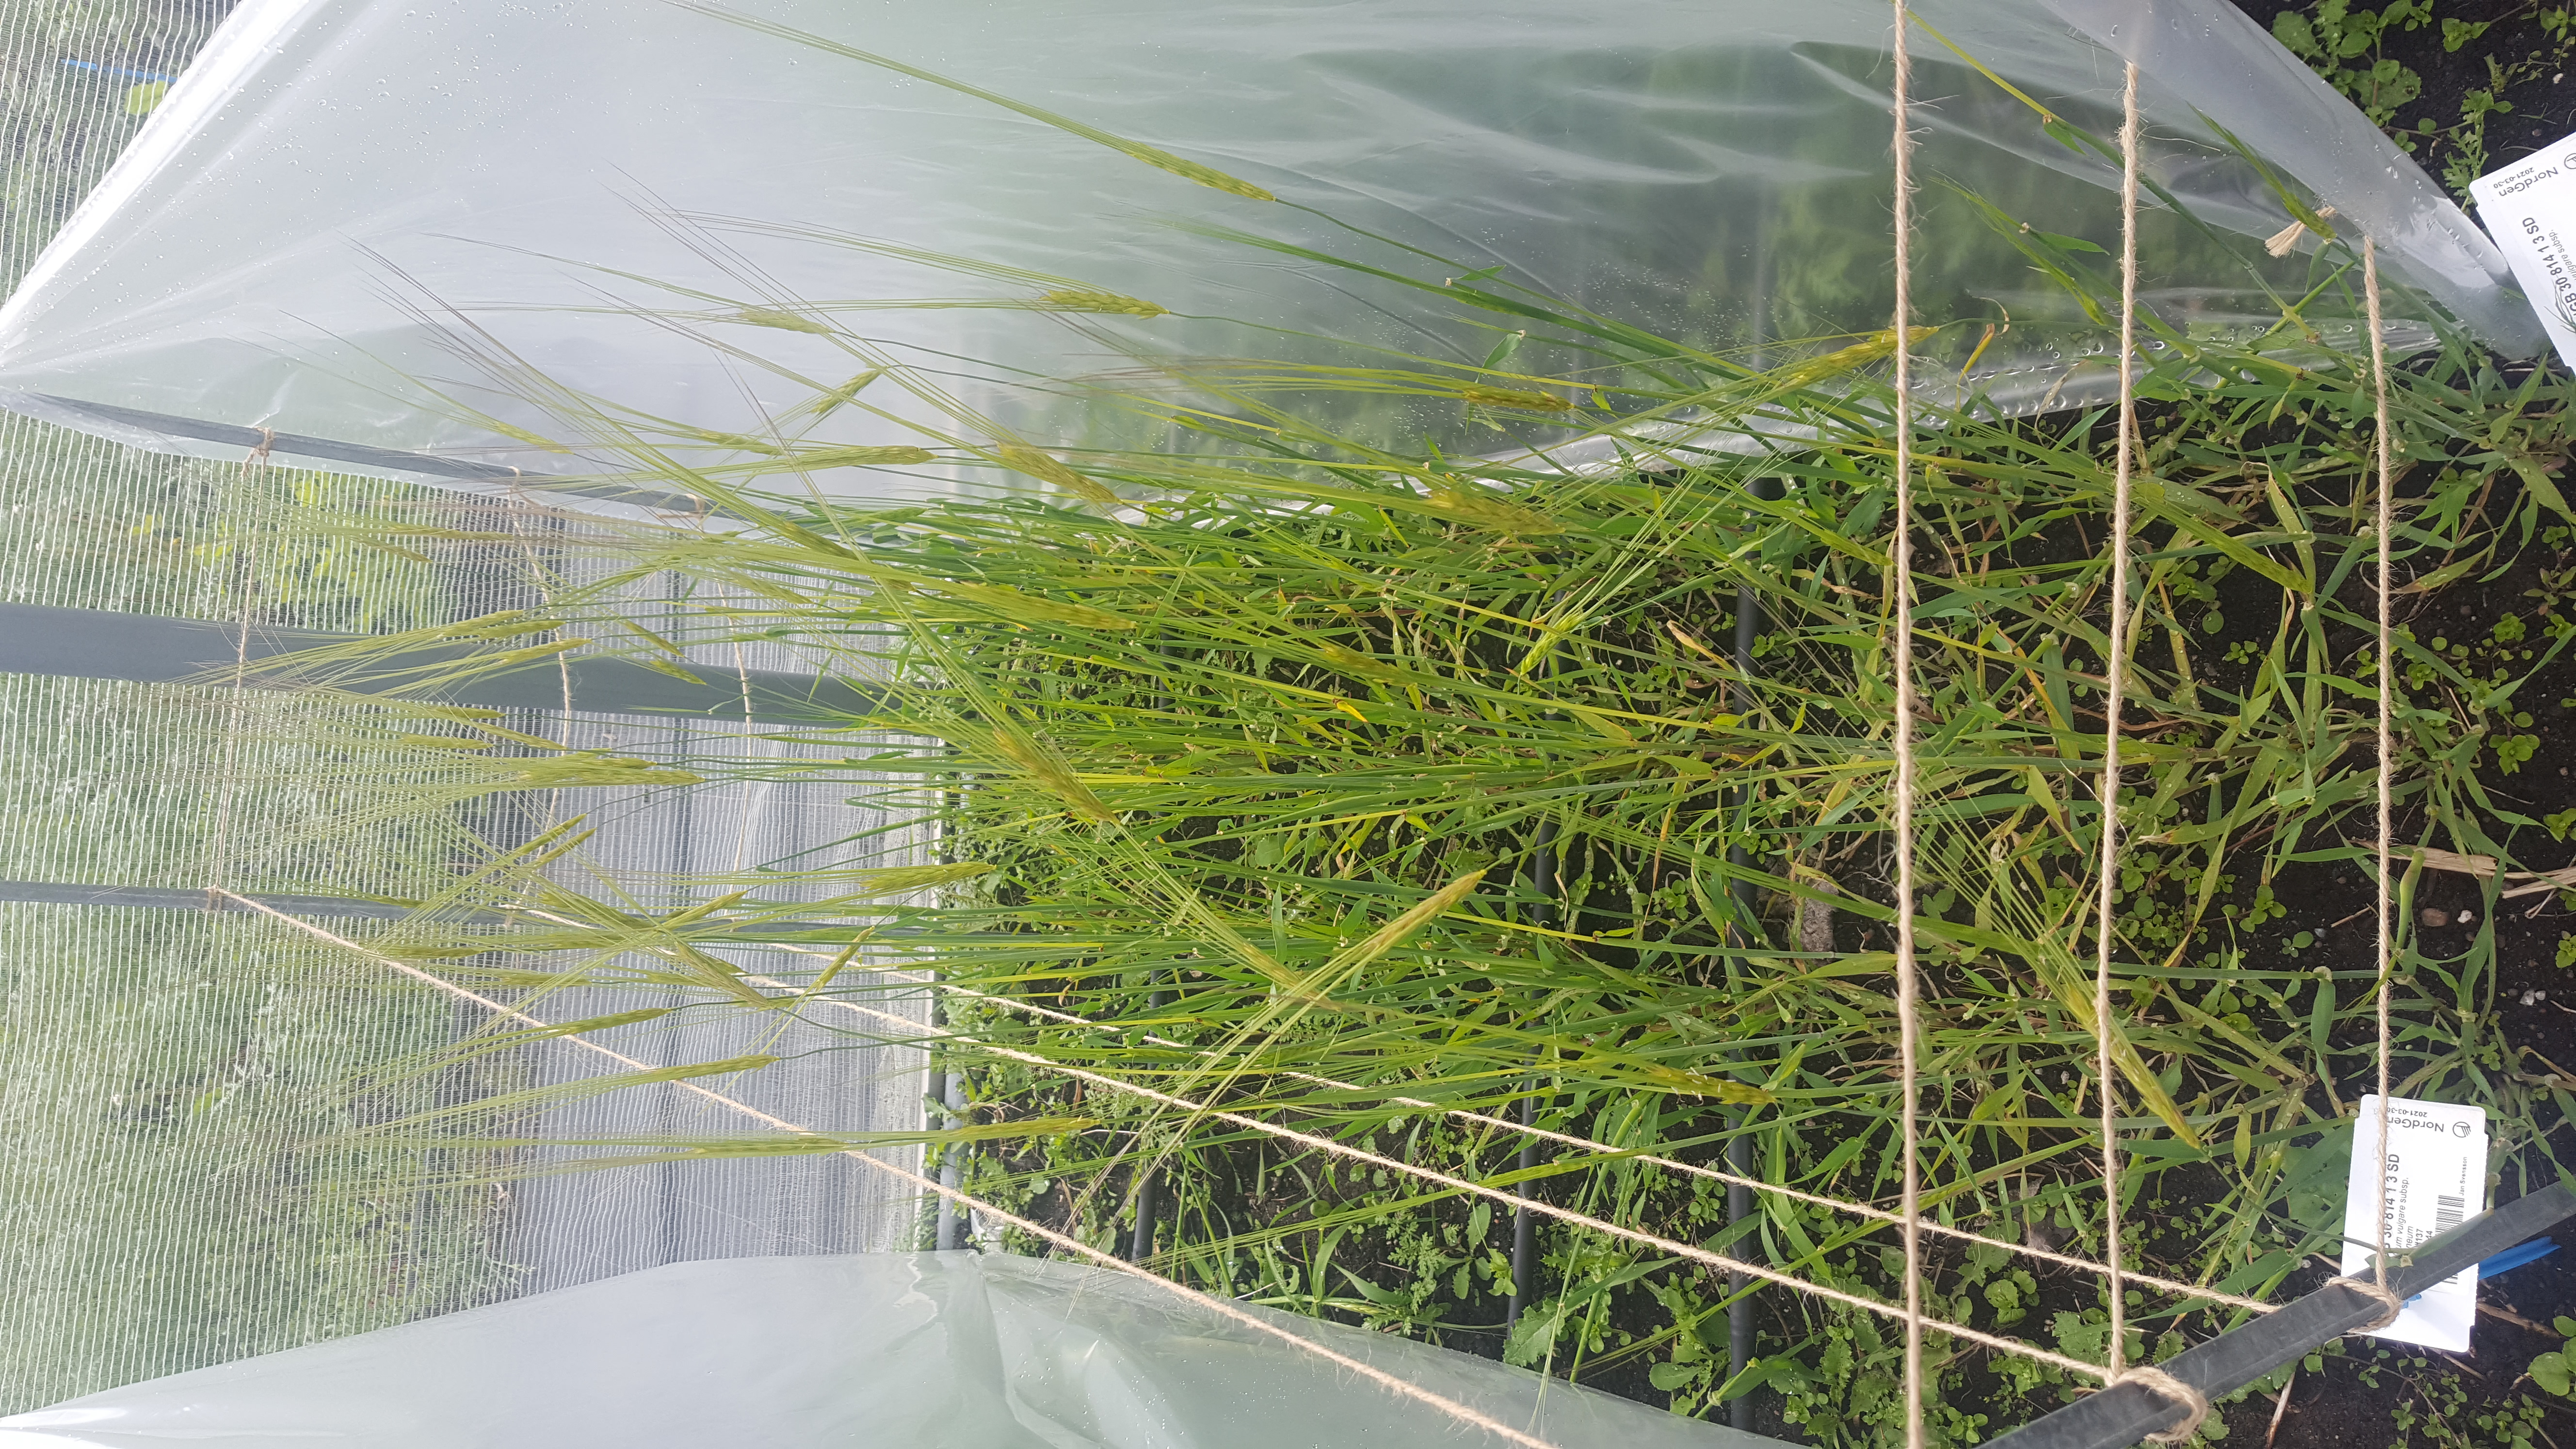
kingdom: Plantae
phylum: Tracheophyta
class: Liliopsida
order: Poales
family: Poaceae
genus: Hordeum
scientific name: Hordeum spontaneum
